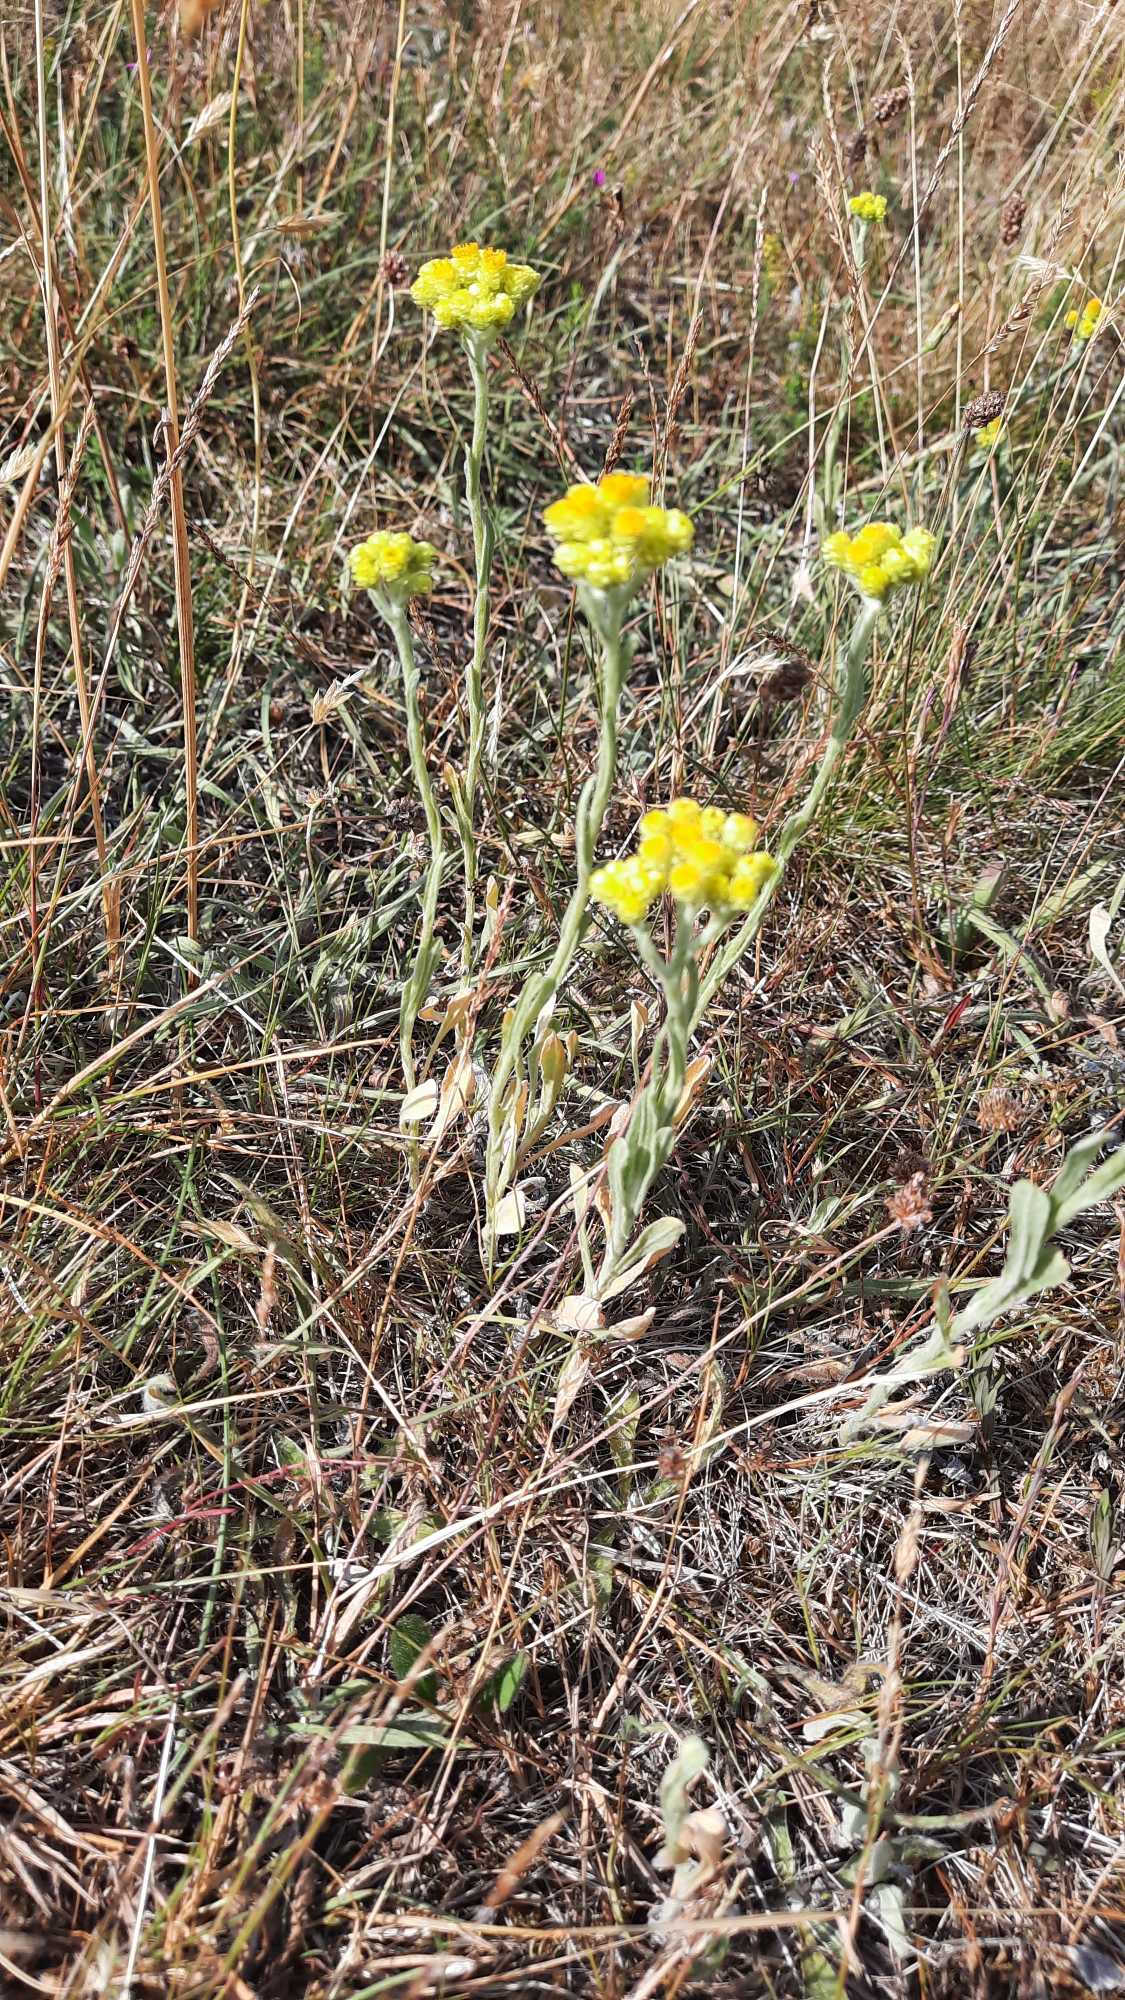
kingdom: Plantae
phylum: Tracheophyta
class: Magnoliopsida
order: Asterales
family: Asteraceae
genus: Helichrysum
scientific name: Helichrysum arenarium
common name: Gul evighedsblomst
